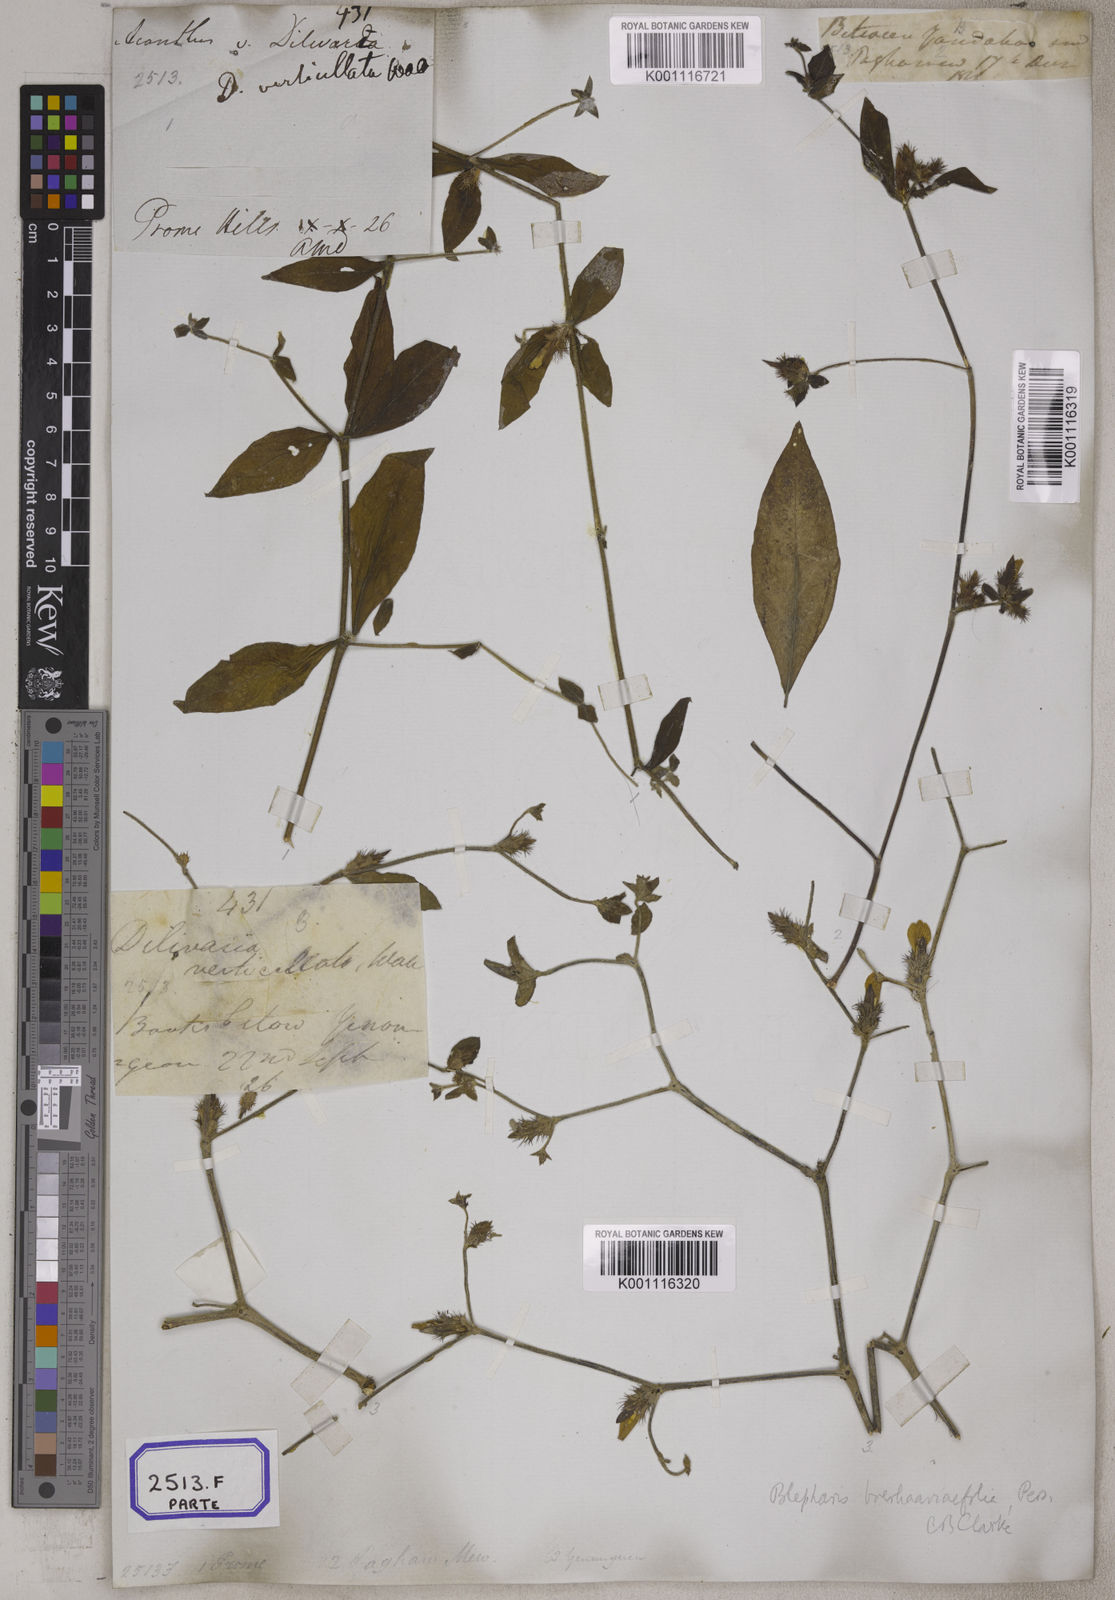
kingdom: Plantae
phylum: Tracheophyta
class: Magnoliopsida
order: Lamiales
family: Acanthaceae
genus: Blepharis
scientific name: Blepharis
